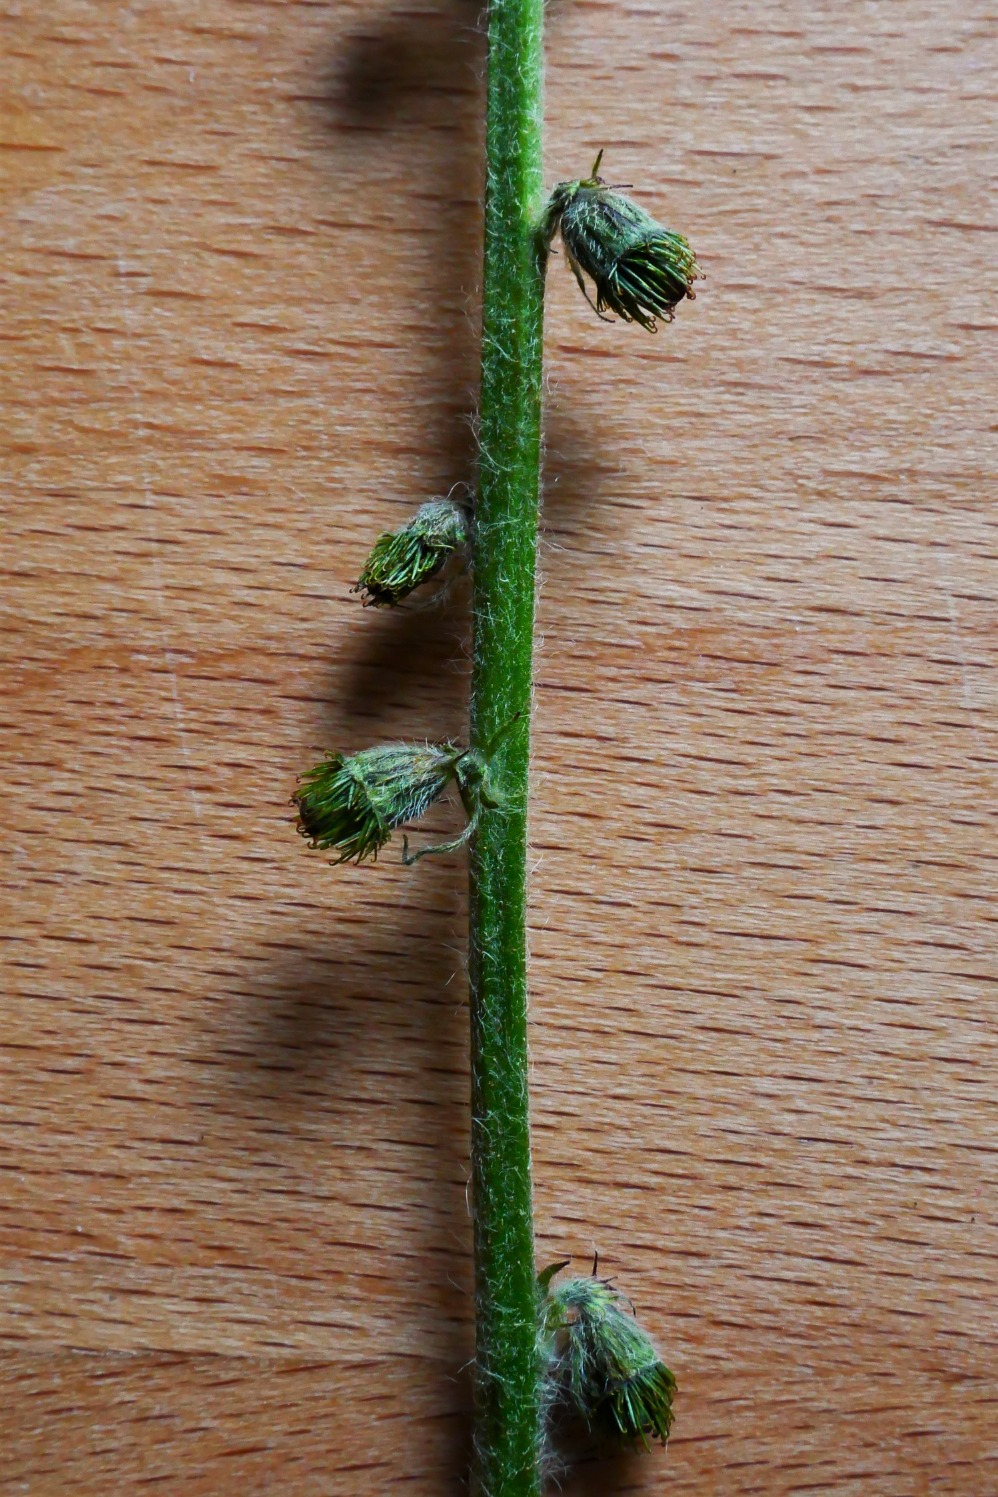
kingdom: Plantae
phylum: Tracheophyta
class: Magnoliopsida
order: Rosales
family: Rosaceae
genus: Agrimonia
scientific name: Agrimonia eupatoria
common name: Almindelig agermåne
